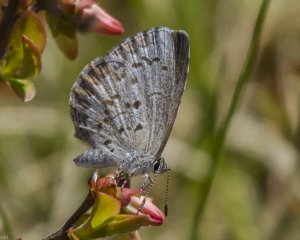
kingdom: Animalia
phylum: Arthropoda
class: Insecta
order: Lepidoptera
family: Lycaenidae
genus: Celastrina
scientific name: Celastrina lucia
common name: Northern Spring Azure
